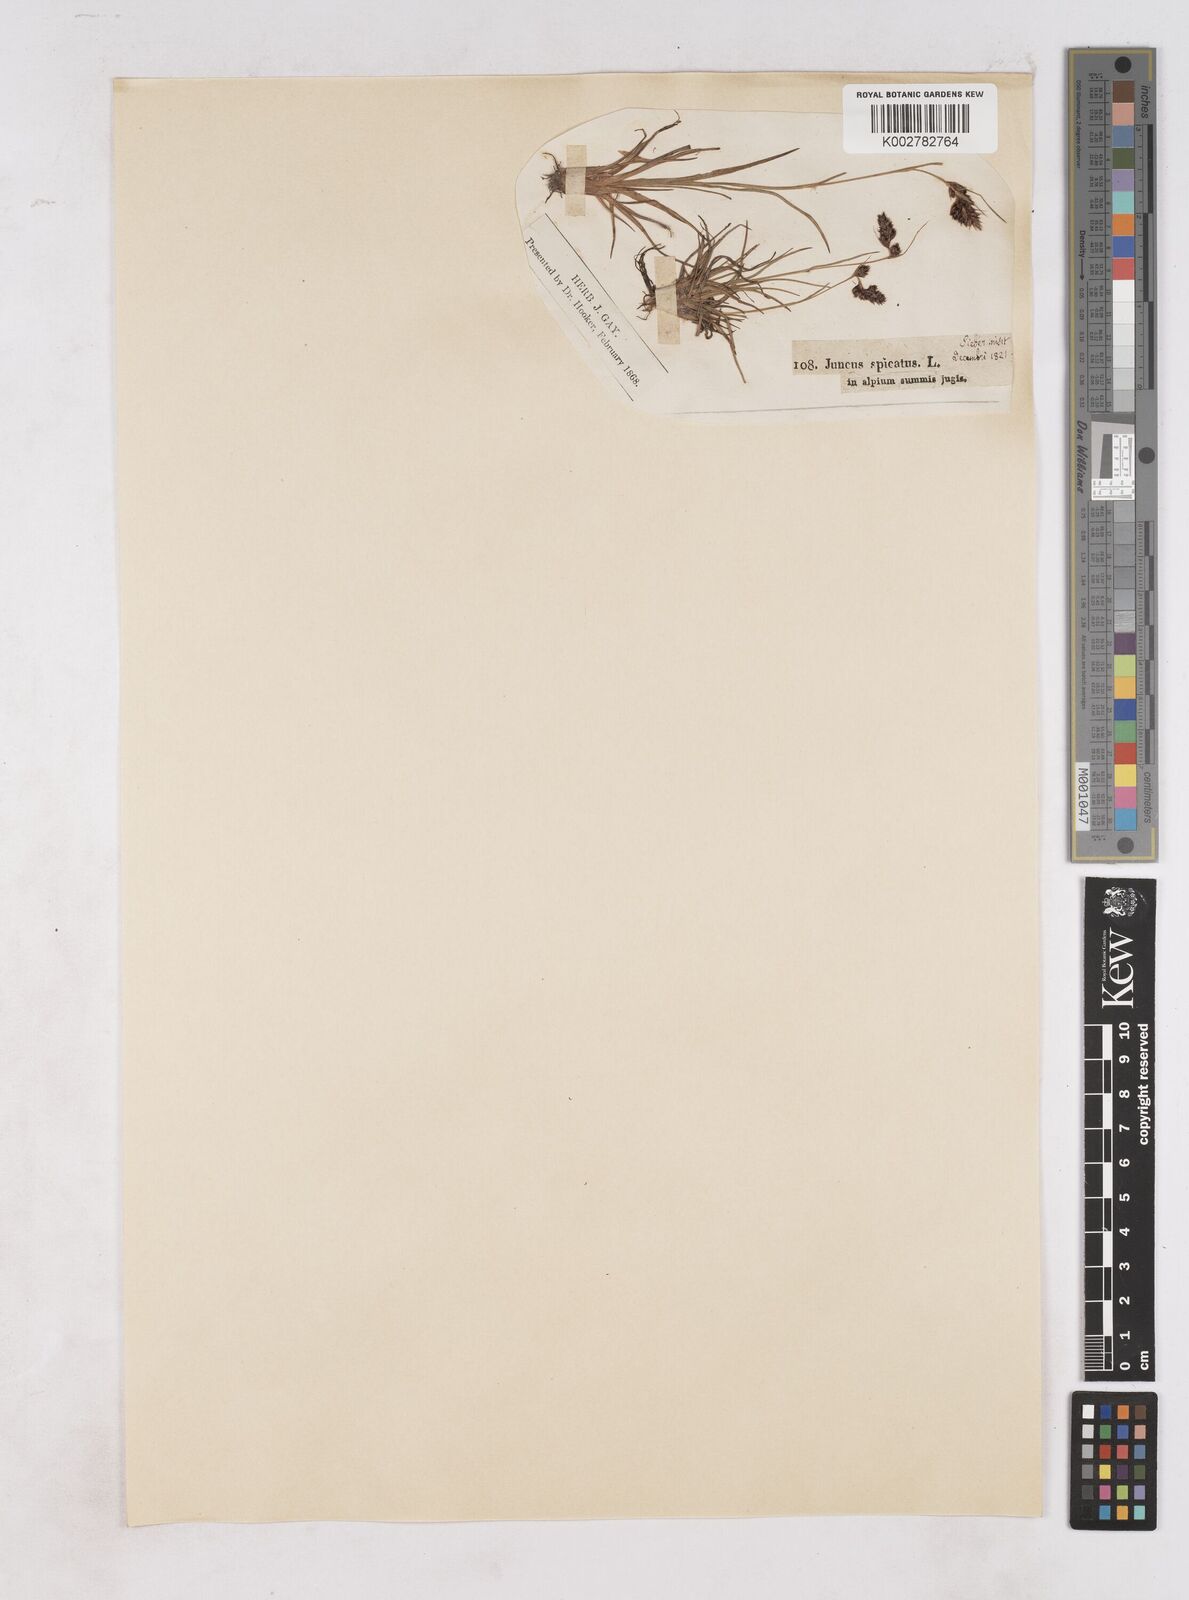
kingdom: Plantae
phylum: Tracheophyta
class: Liliopsida
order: Poales
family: Juncaceae
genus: Luzula
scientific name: Luzula spicata
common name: Spiked wood-rush
